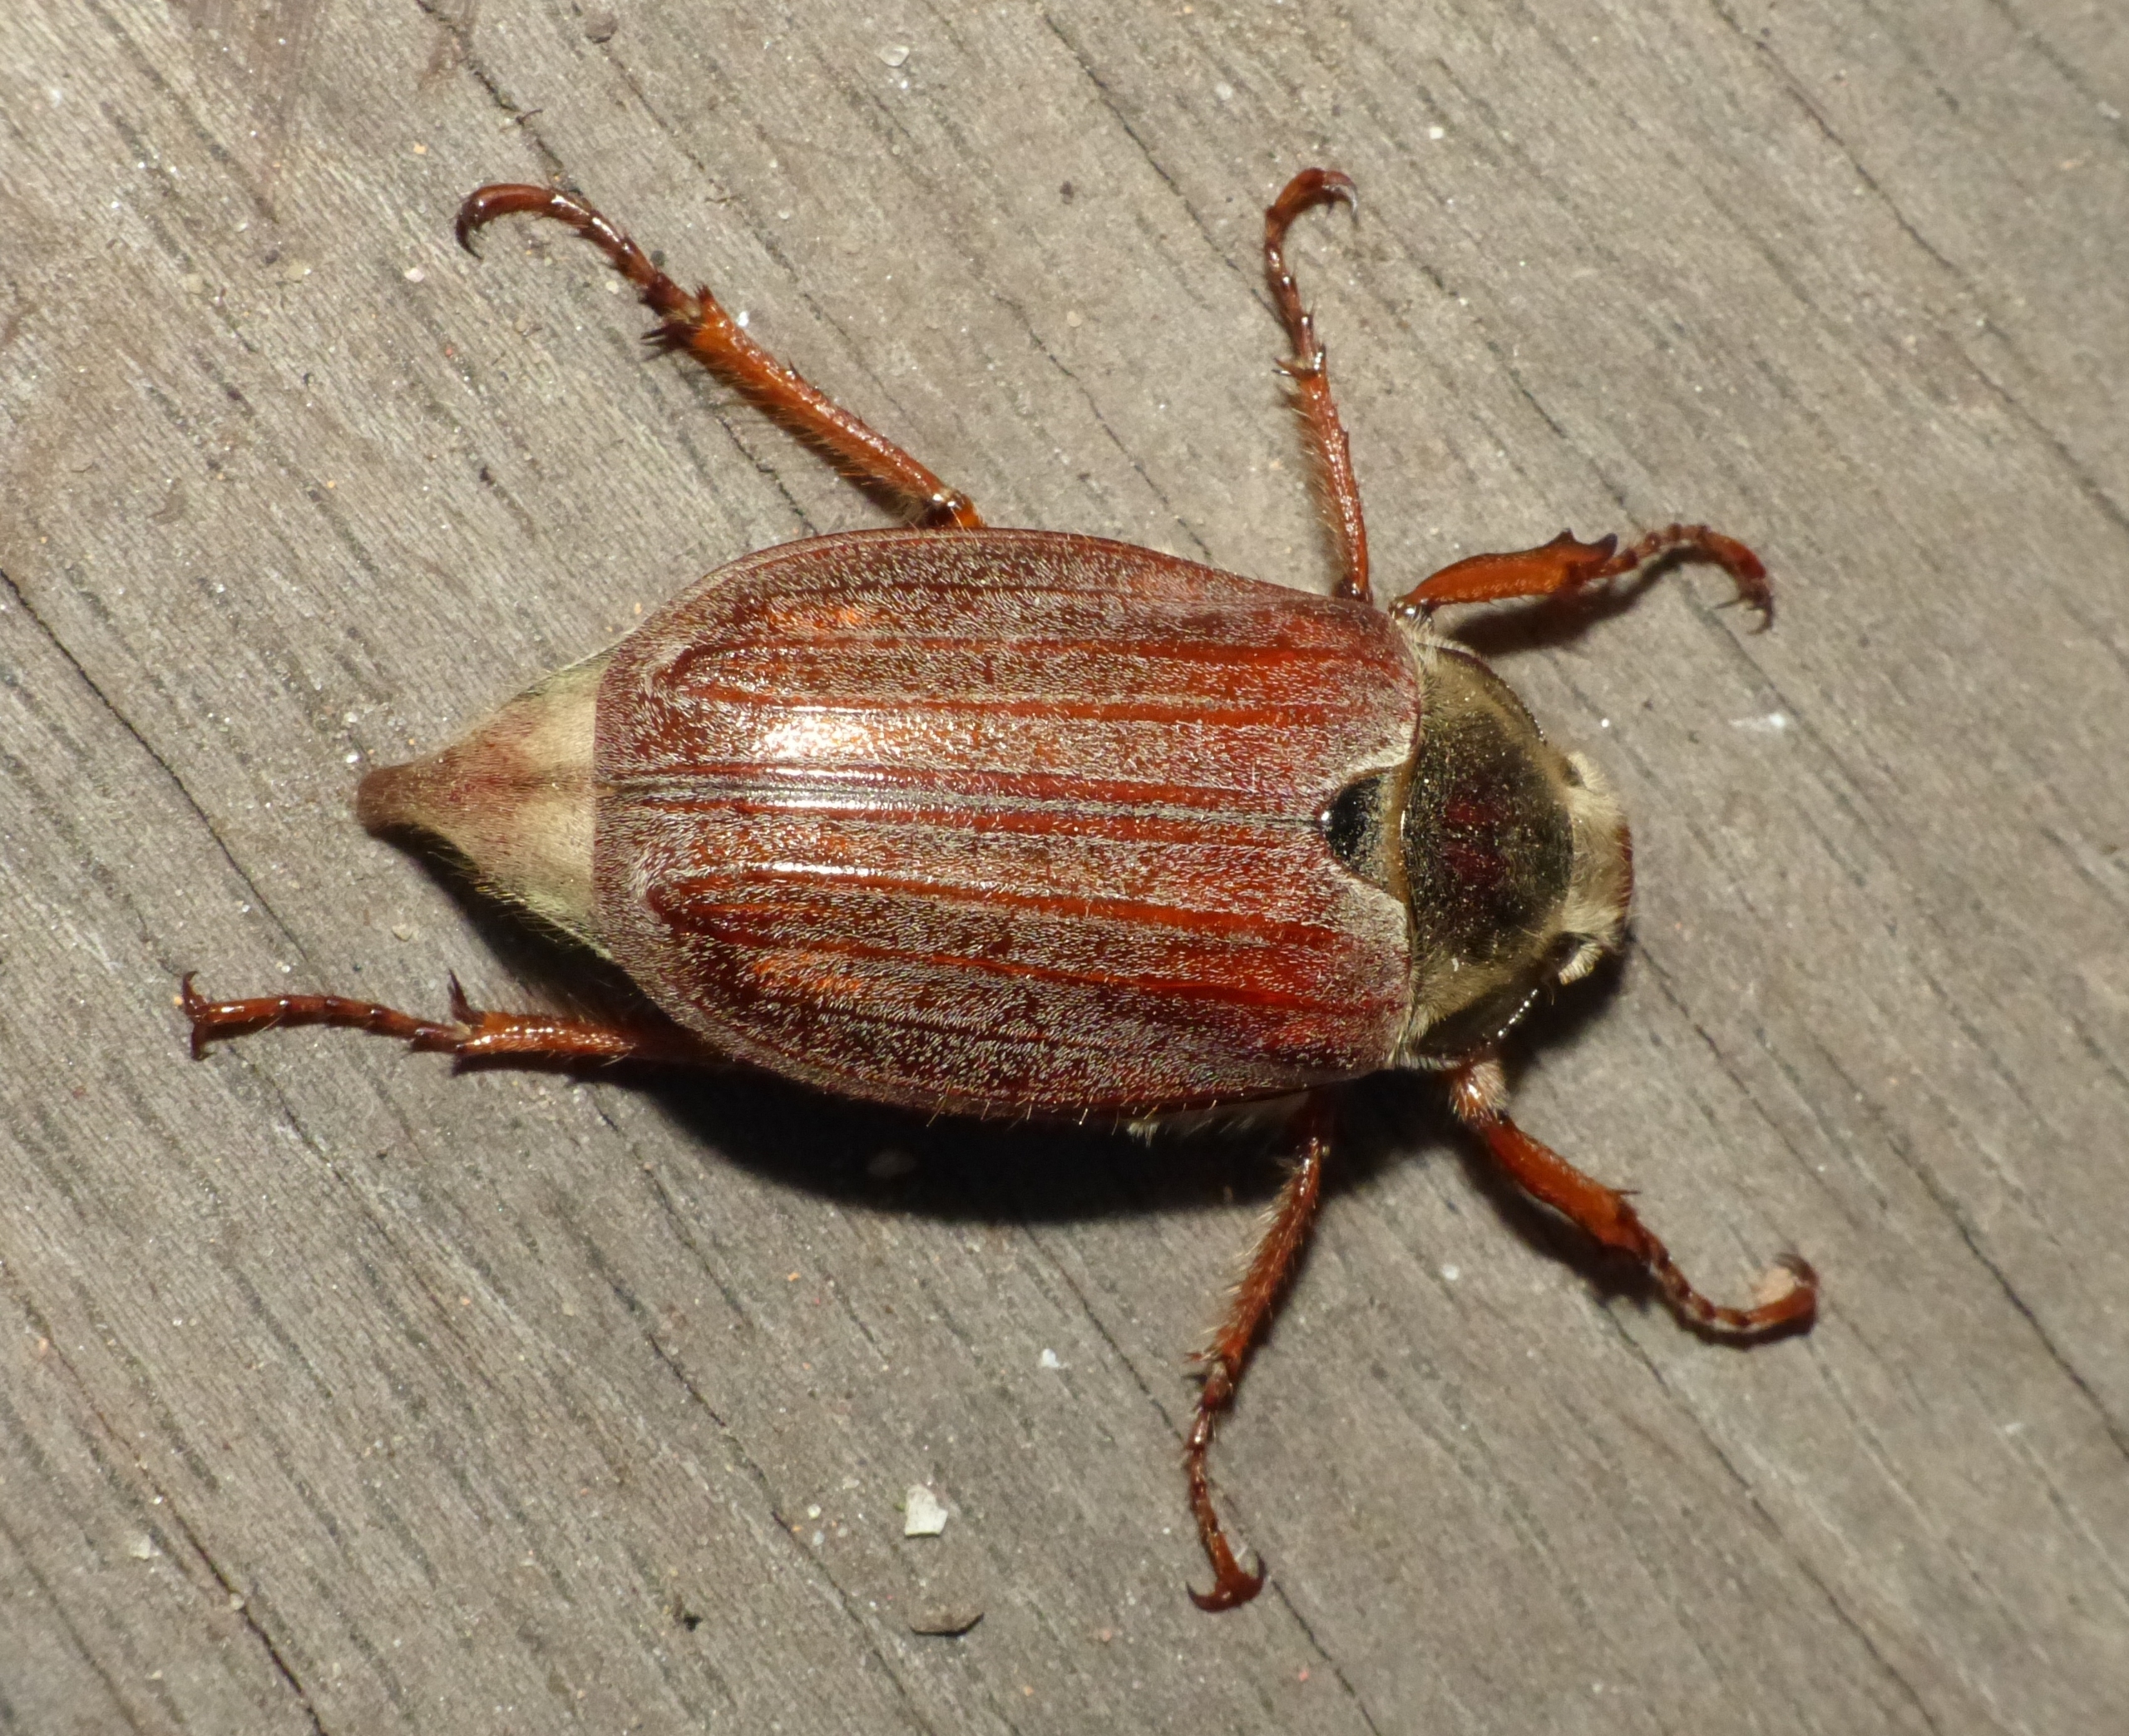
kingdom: Animalia
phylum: Arthropoda
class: Insecta
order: Coleoptera
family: Scarabaeidae
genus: Melolontha
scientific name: Melolontha melolontha
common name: Almindelig oldenborre
